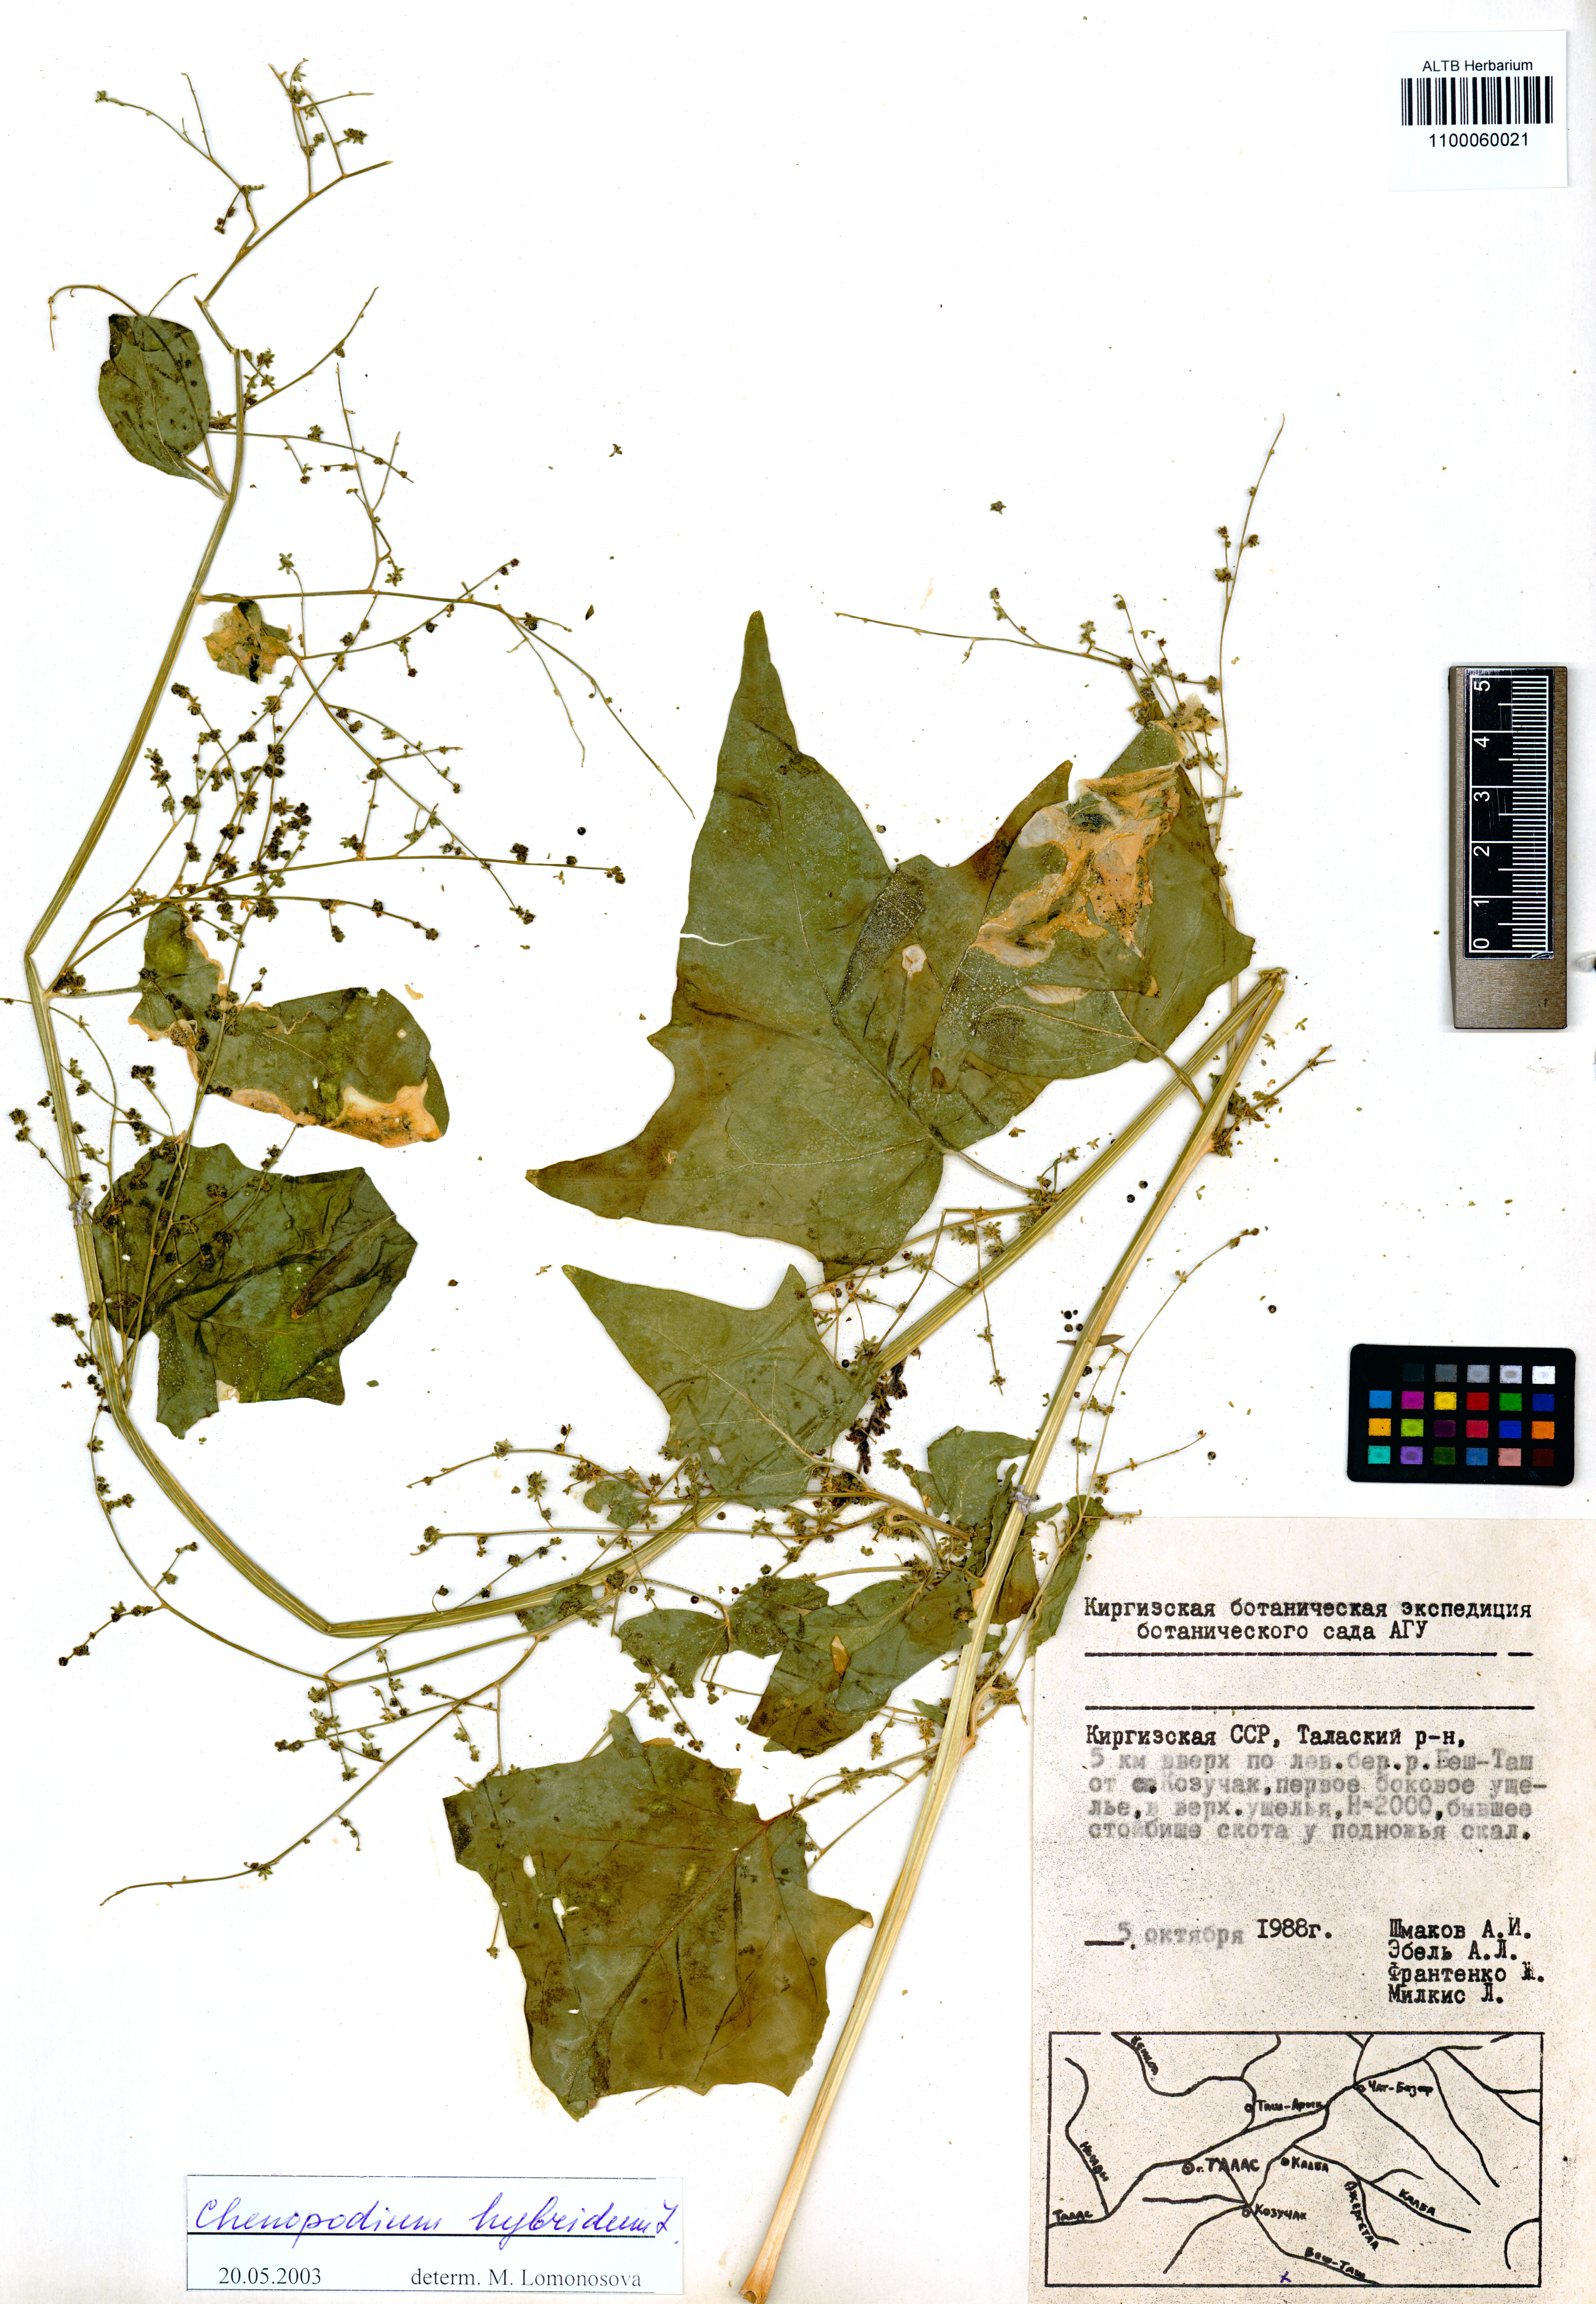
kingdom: Plantae
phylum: Tracheophyta
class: Magnoliopsida
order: Caryophyllales
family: Amaranthaceae
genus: Chenopodiastrum
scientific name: Chenopodiastrum hybridum
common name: Mapleleaf goosefoot
